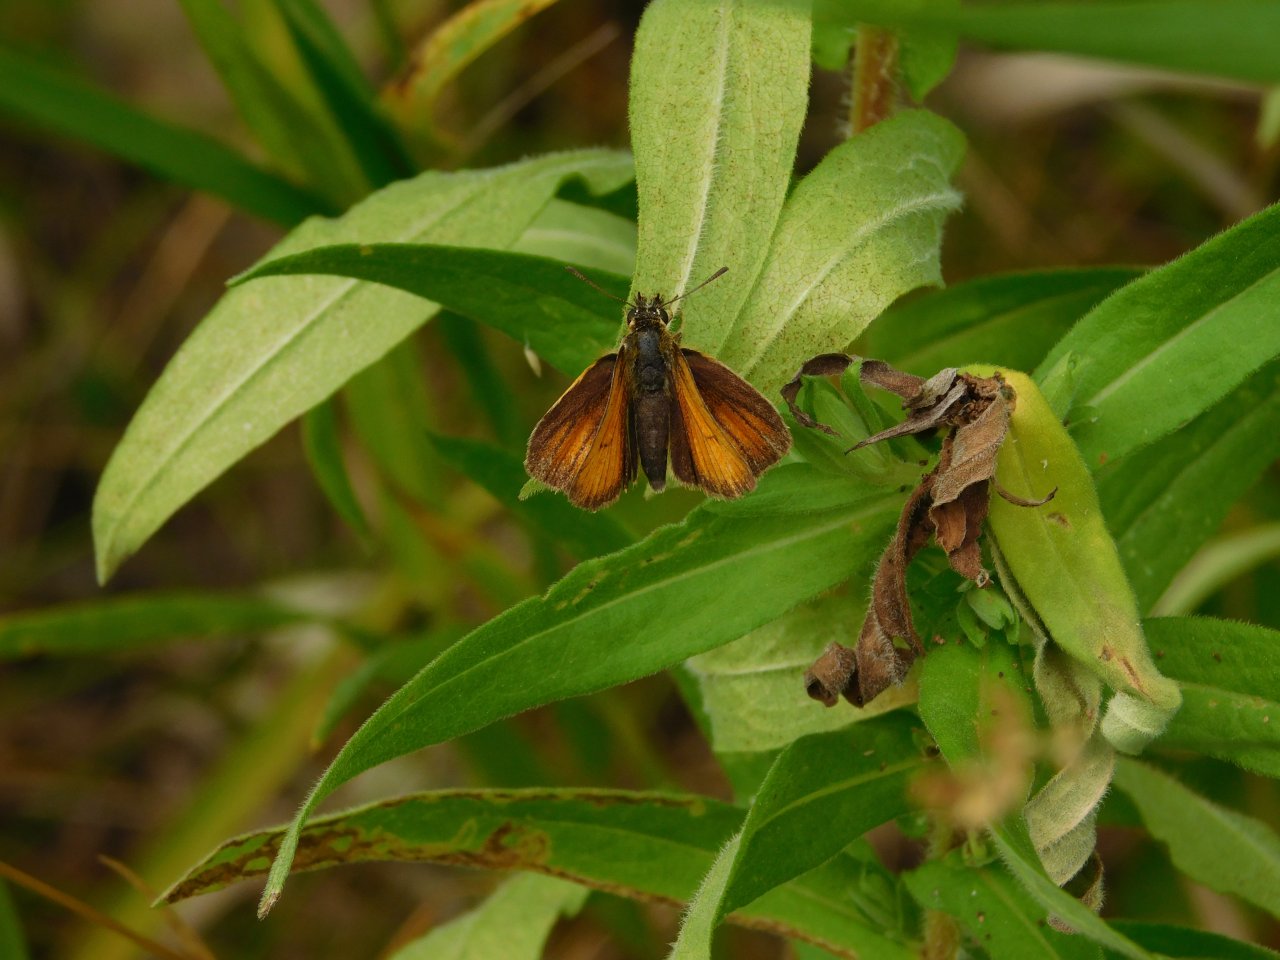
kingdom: Animalia
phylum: Arthropoda
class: Insecta
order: Lepidoptera
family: Hesperiidae
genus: Thymelicus
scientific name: Thymelicus lineola
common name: European Skipper
